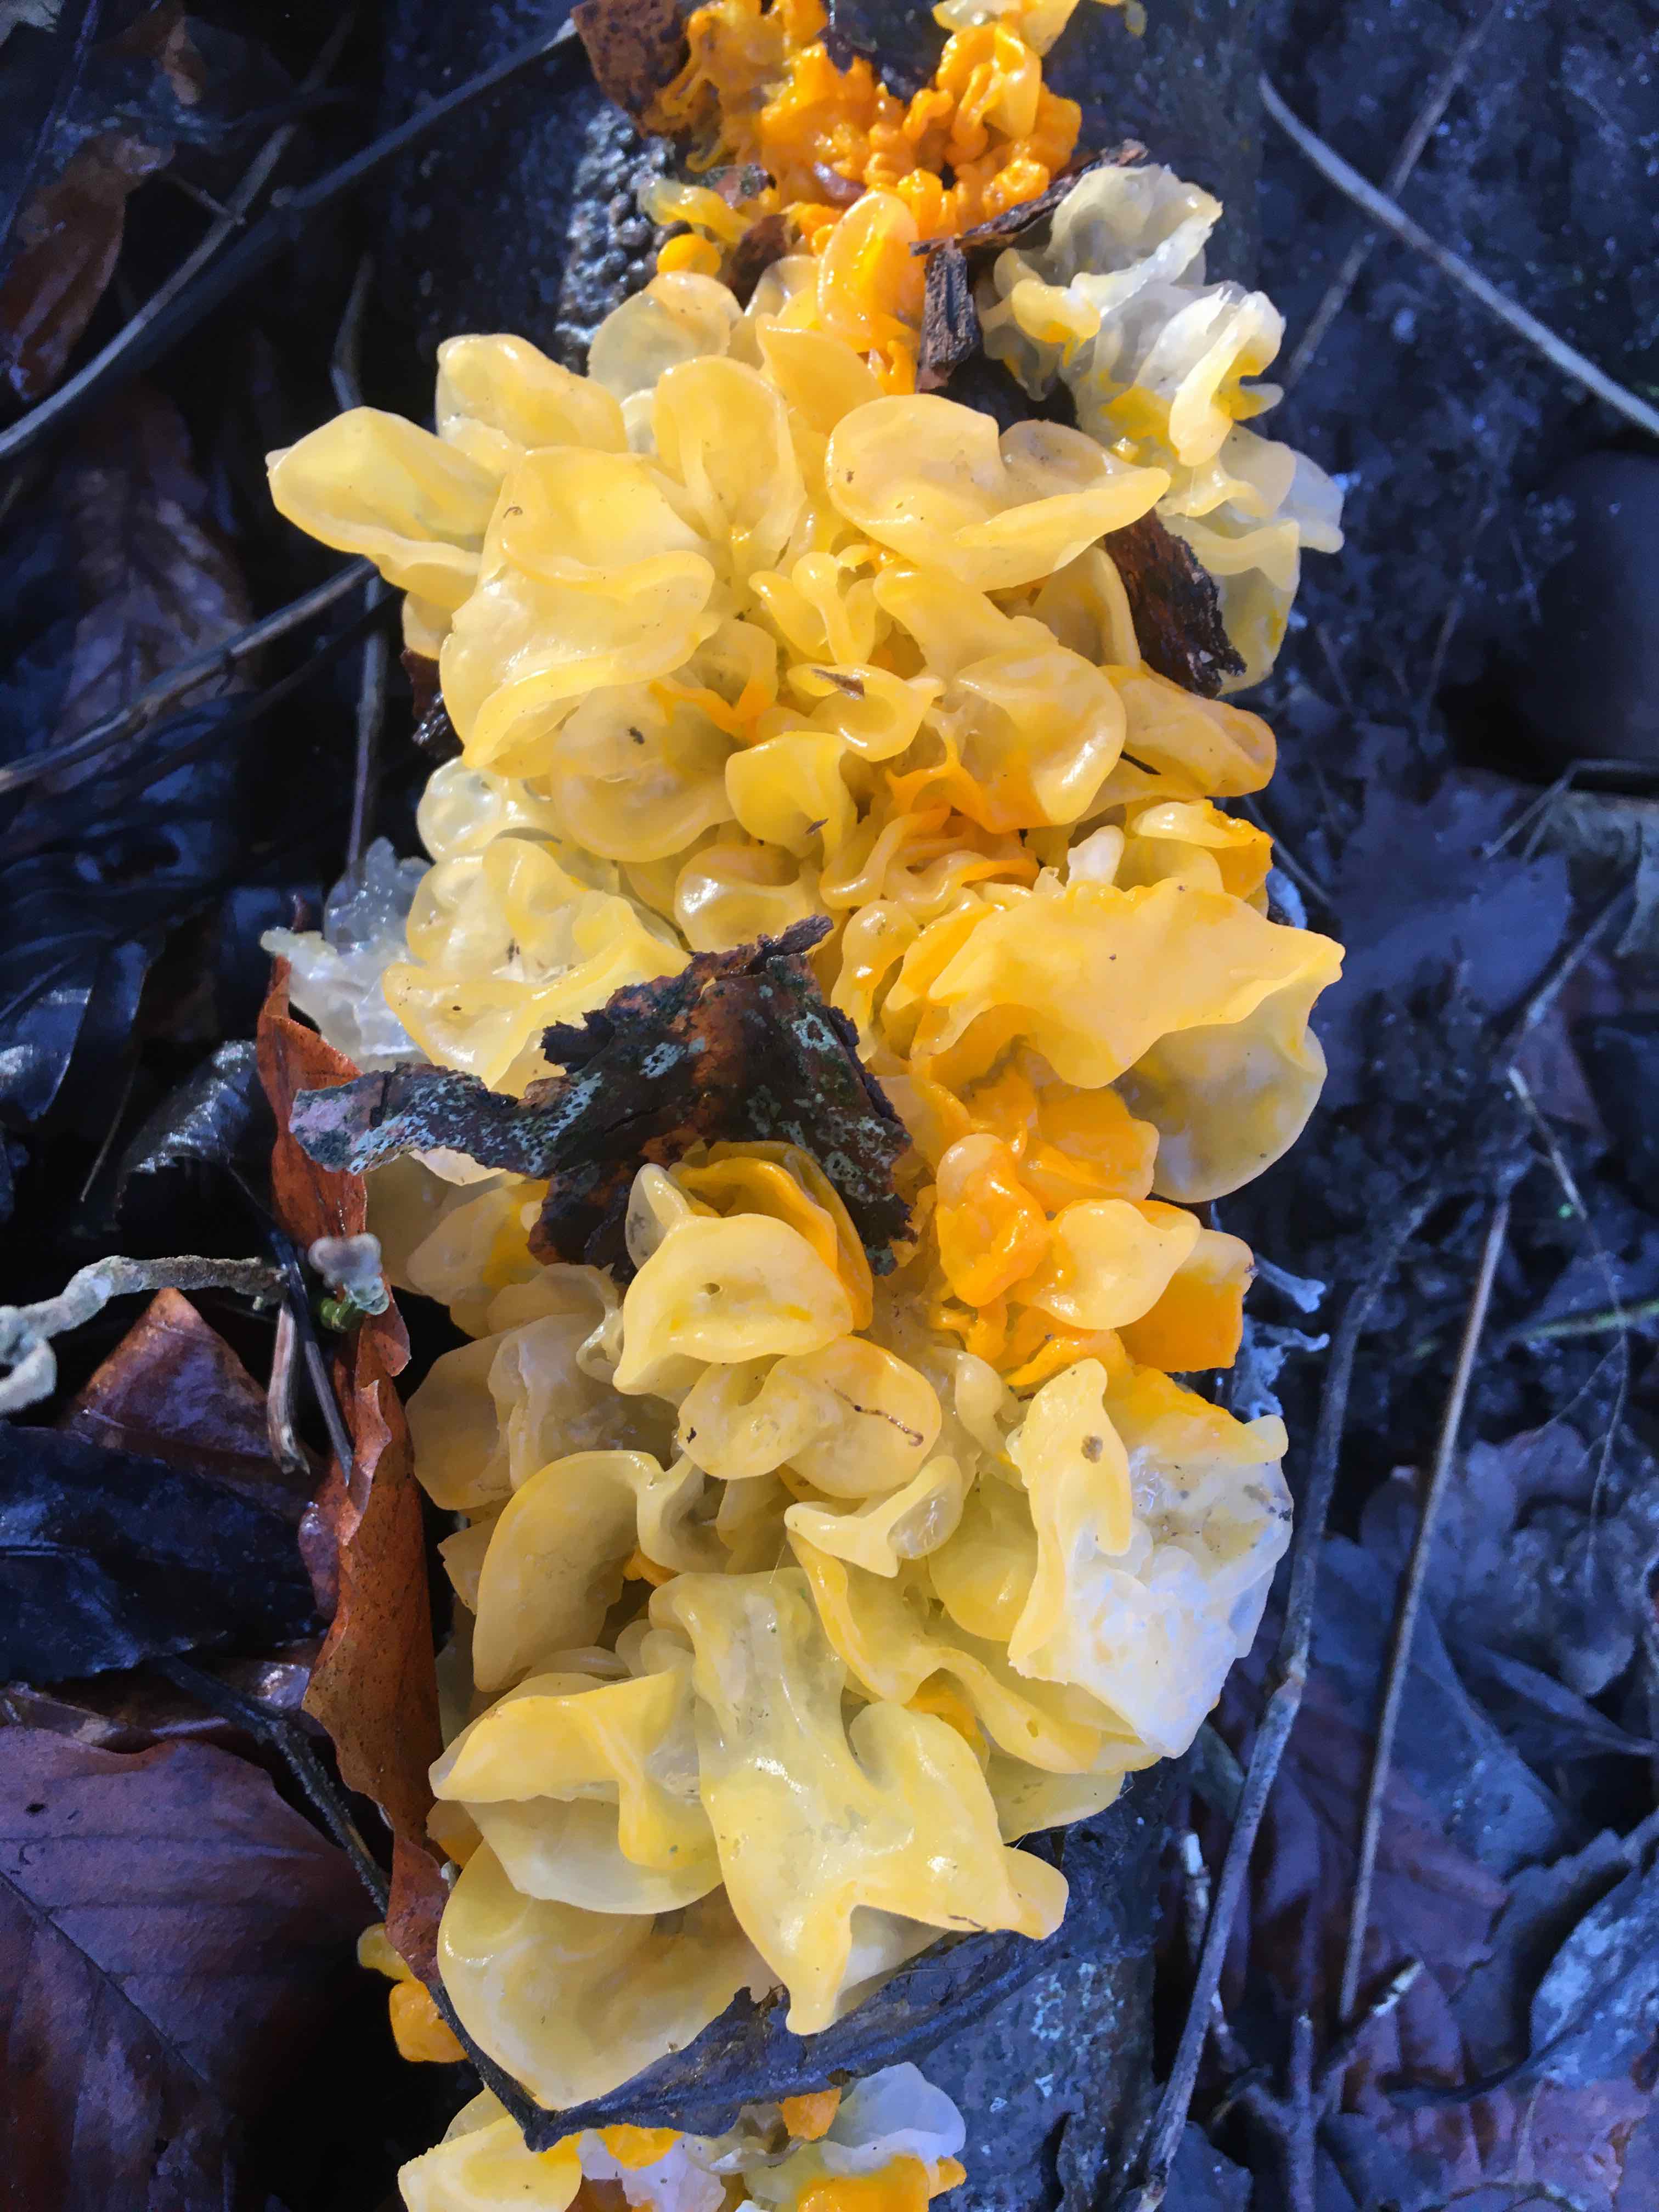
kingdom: Fungi
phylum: Basidiomycota
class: Tremellomycetes
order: Tremellales
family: Tremellaceae
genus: Tremella
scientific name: Tremella mesenterica
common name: gul bævresvamp
